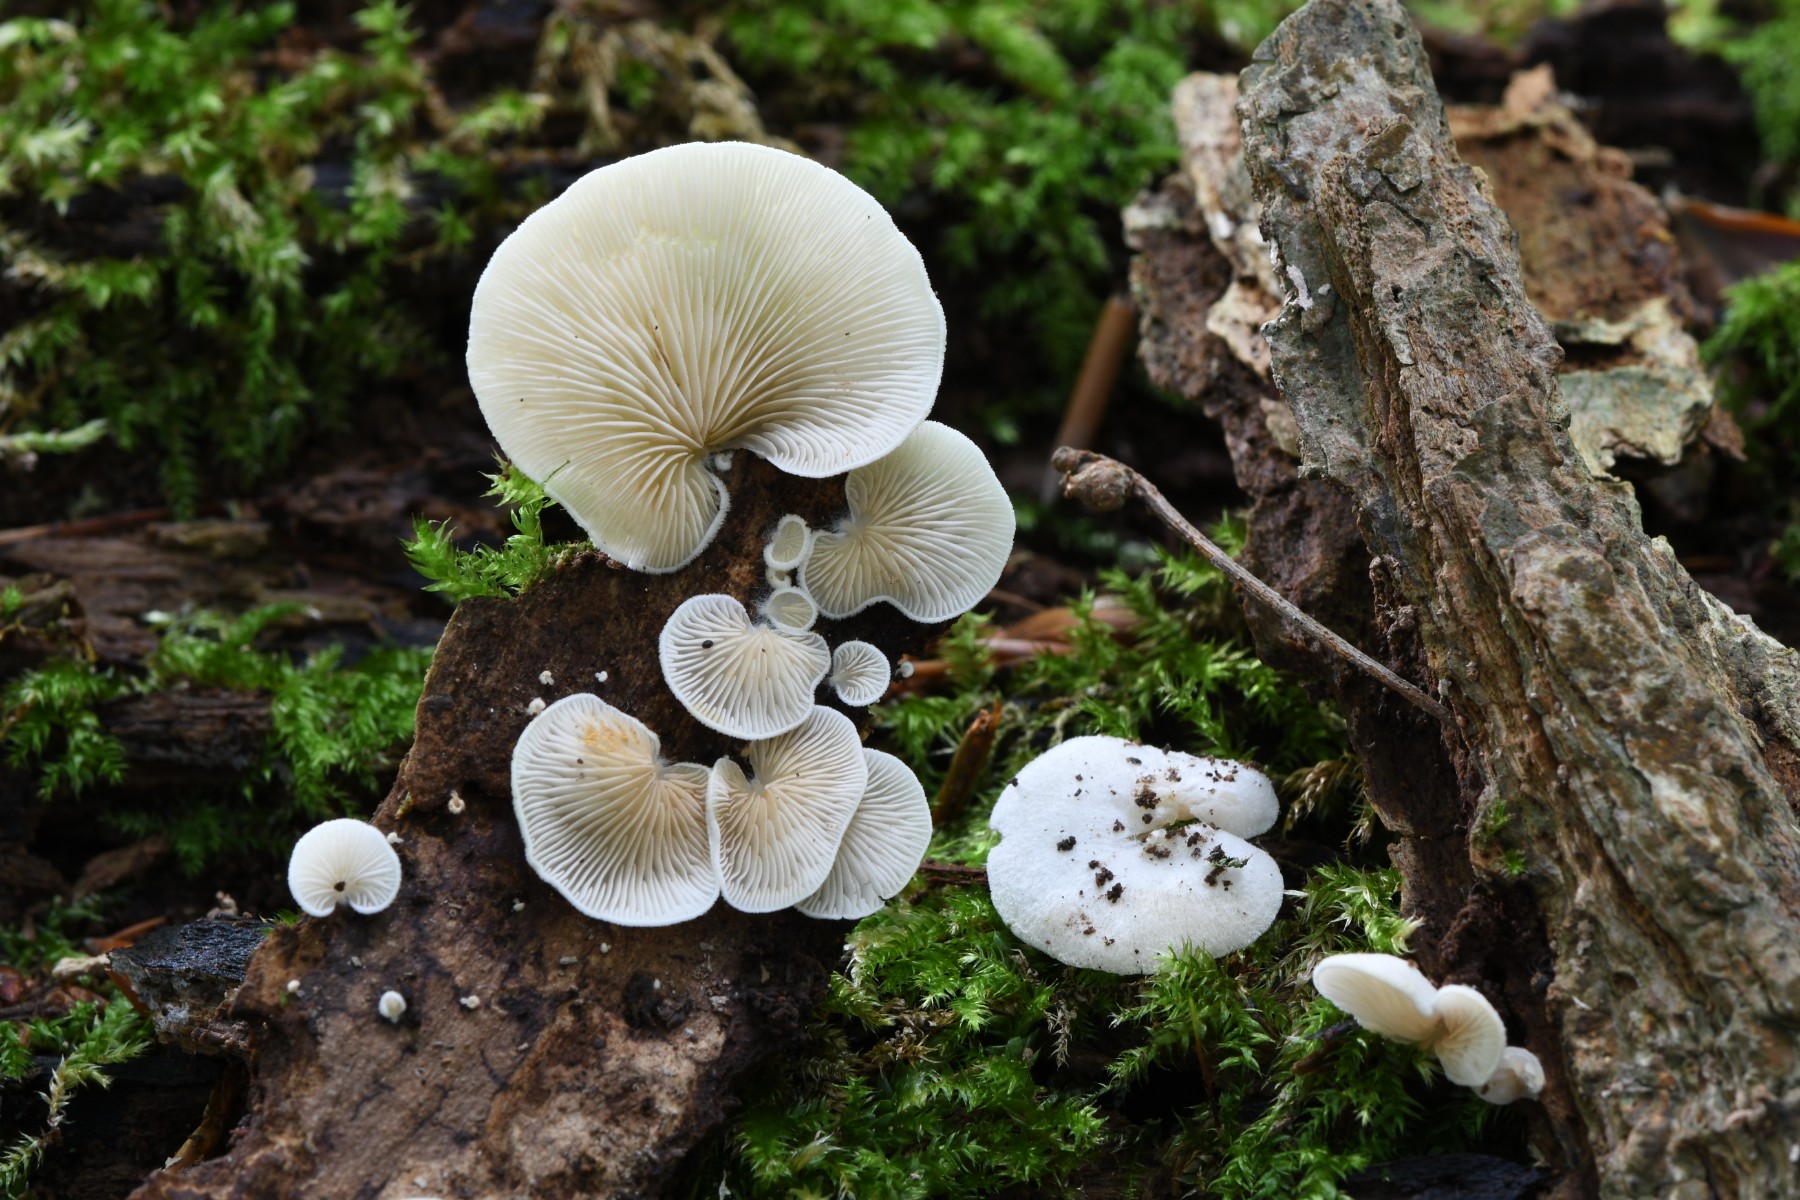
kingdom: Fungi
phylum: Basidiomycota
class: Agaricomycetes
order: Agaricales
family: Crepidotaceae
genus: Crepidotus
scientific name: Crepidotus
